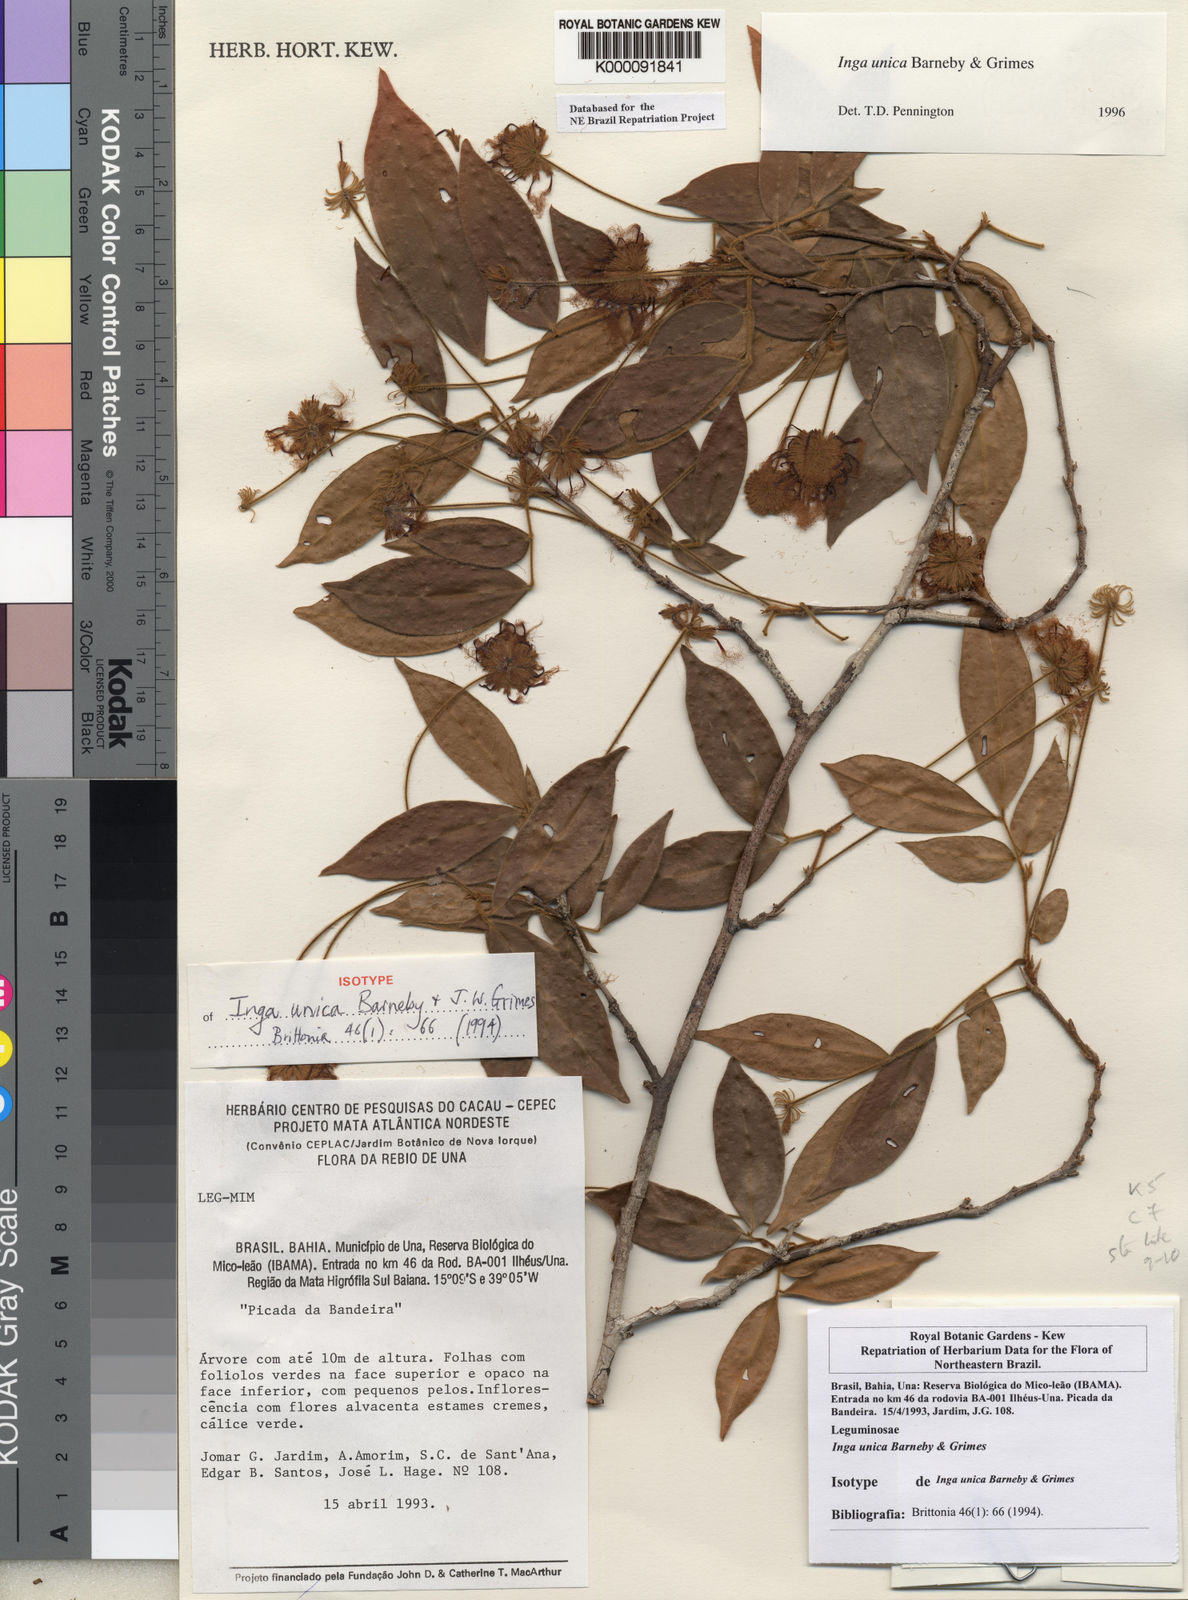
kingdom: Plantae
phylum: Tracheophyta
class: Magnoliopsida
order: Fabales
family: Fabaceae
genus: Inga
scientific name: Inga unica
